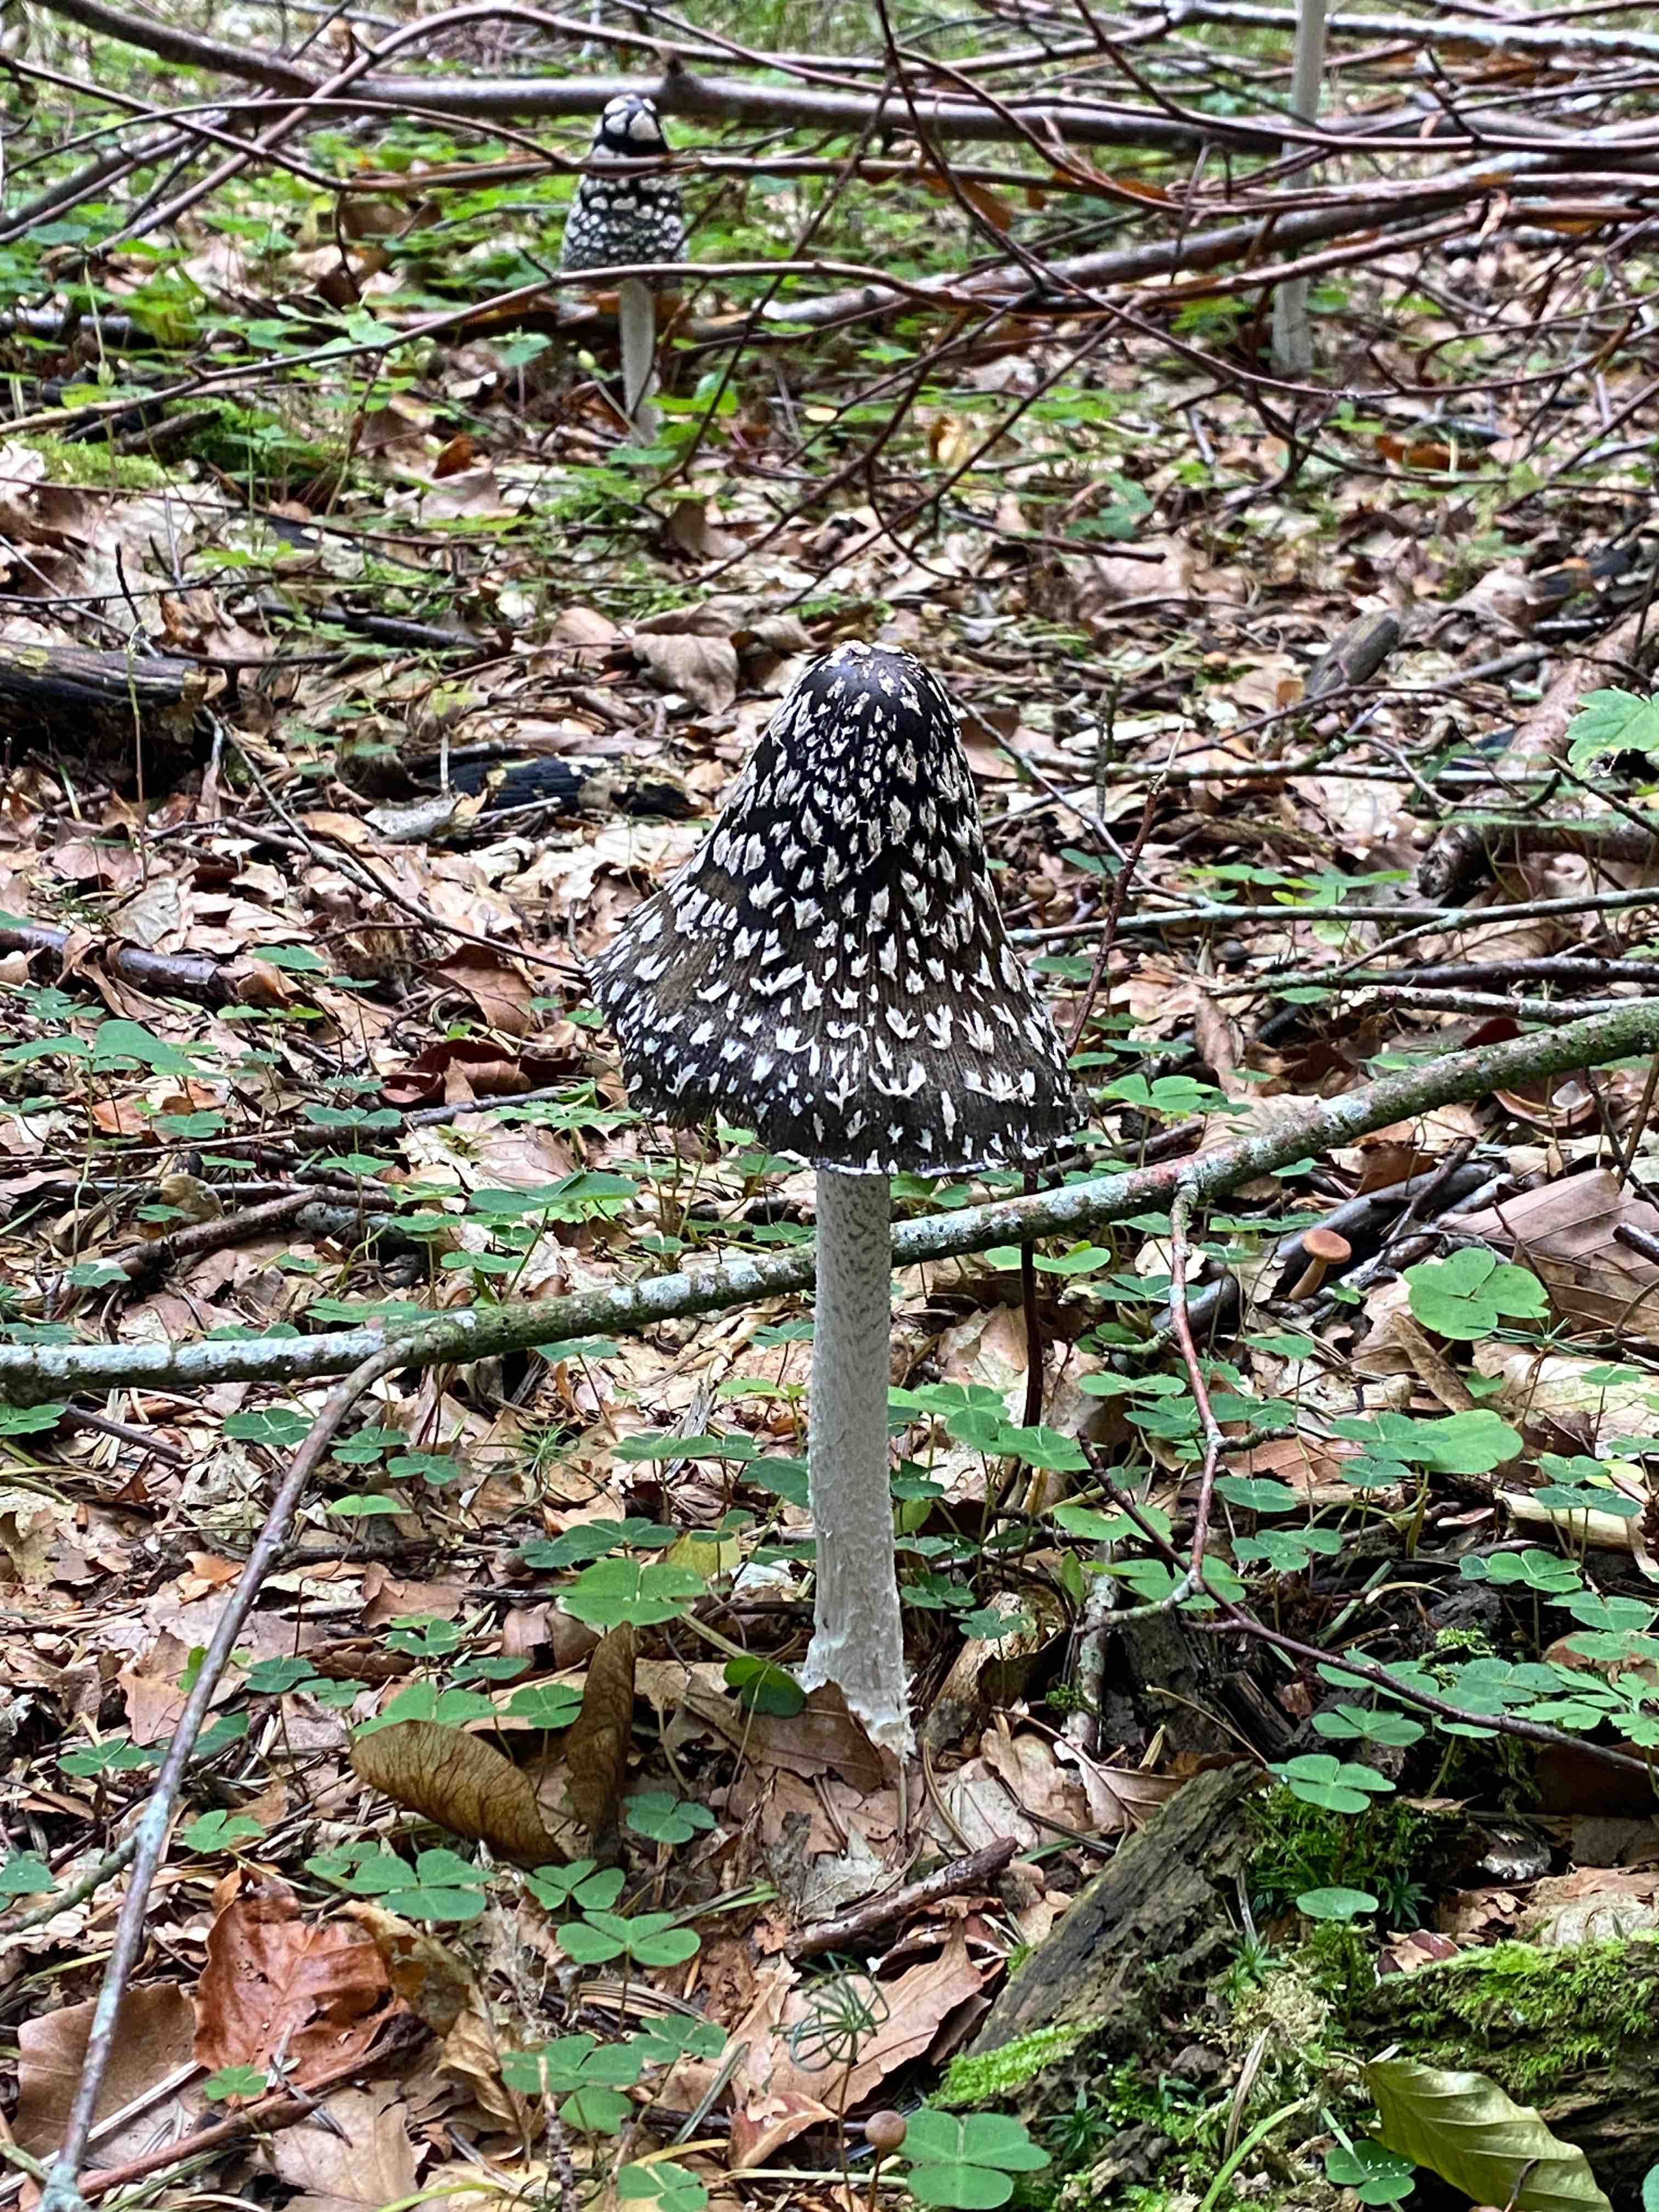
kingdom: Fungi
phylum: Basidiomycota
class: Agaricomycetes
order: Agaricales
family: Psathyrellaceae
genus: Coprinopsis
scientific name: Coprinopsis picacea
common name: skade-blækhat
